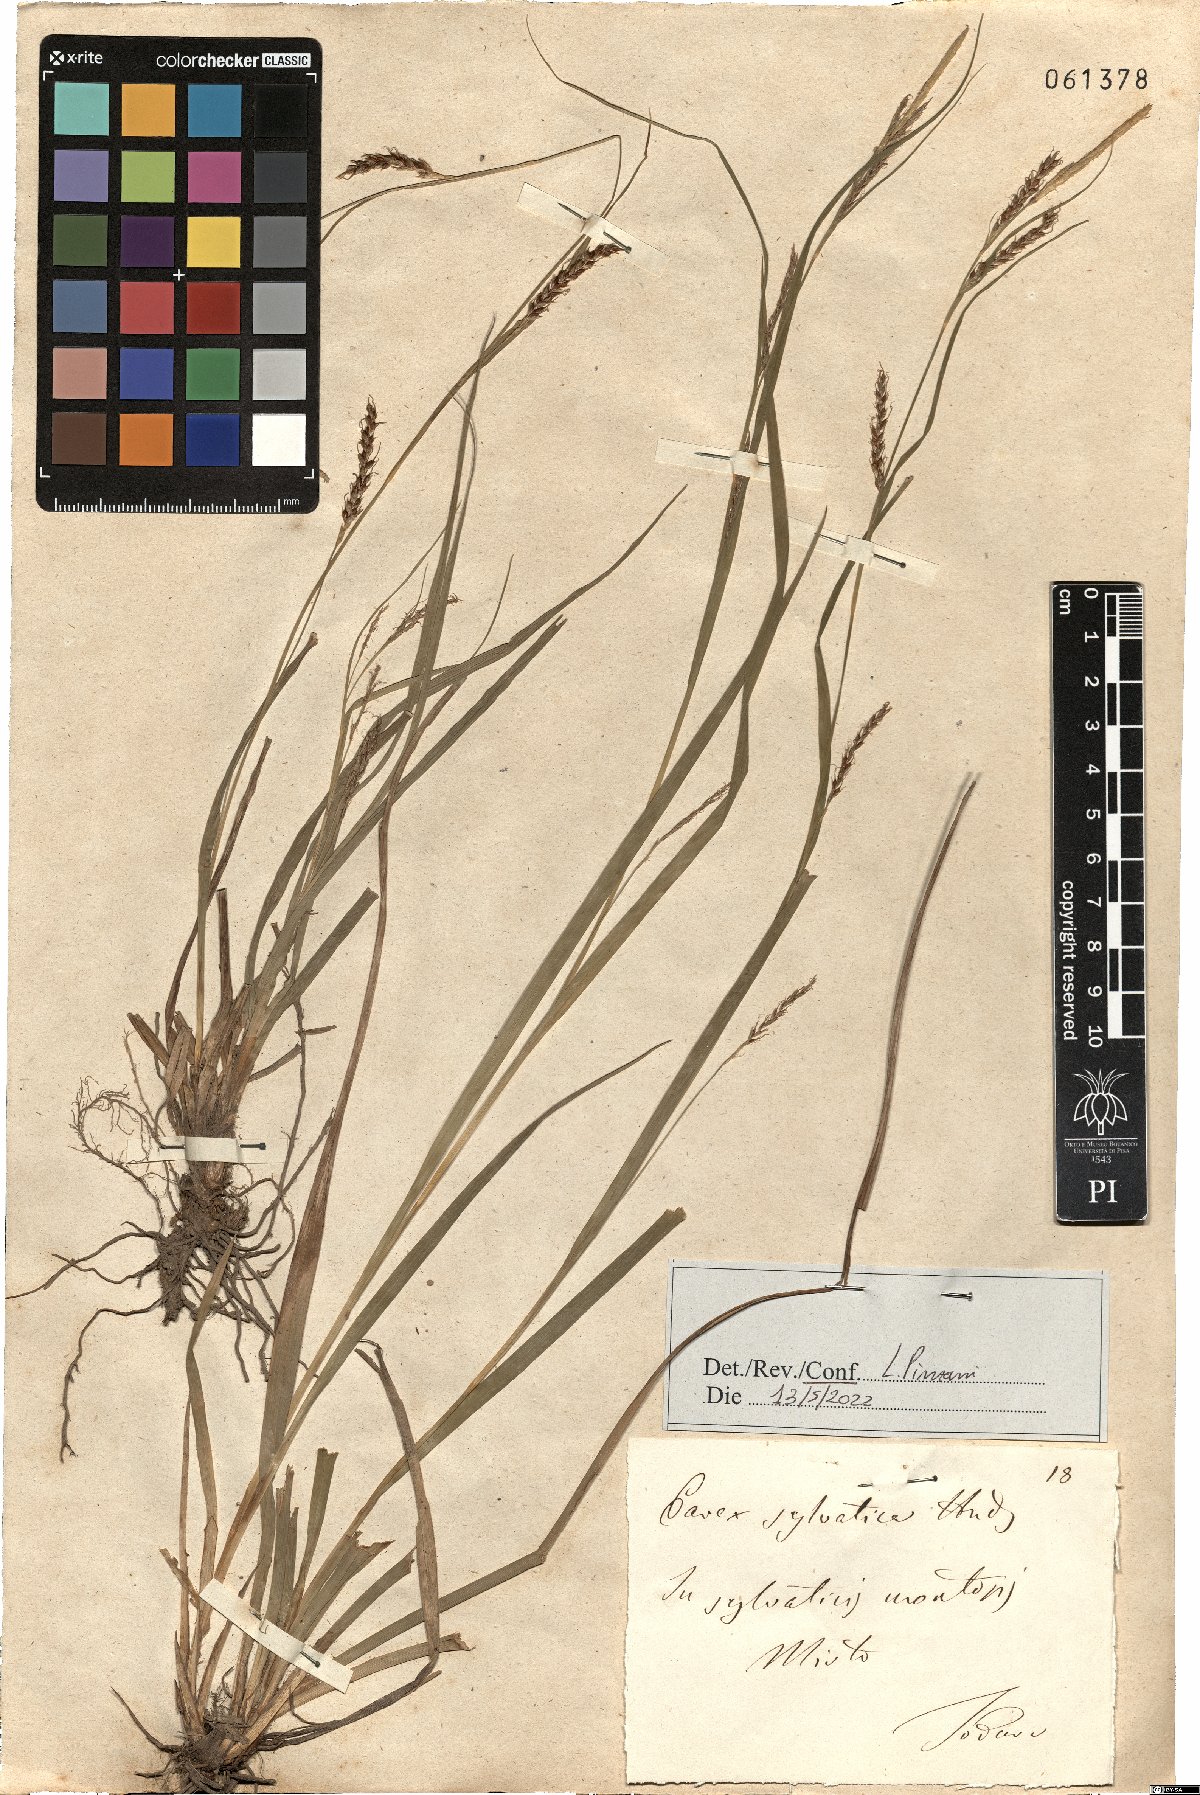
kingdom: Plantae
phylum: Tracheophyta
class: Liliopsida
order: Poales
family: Cyperaceae
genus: Carex
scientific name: Carex sylvatica
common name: Wood-sedge
